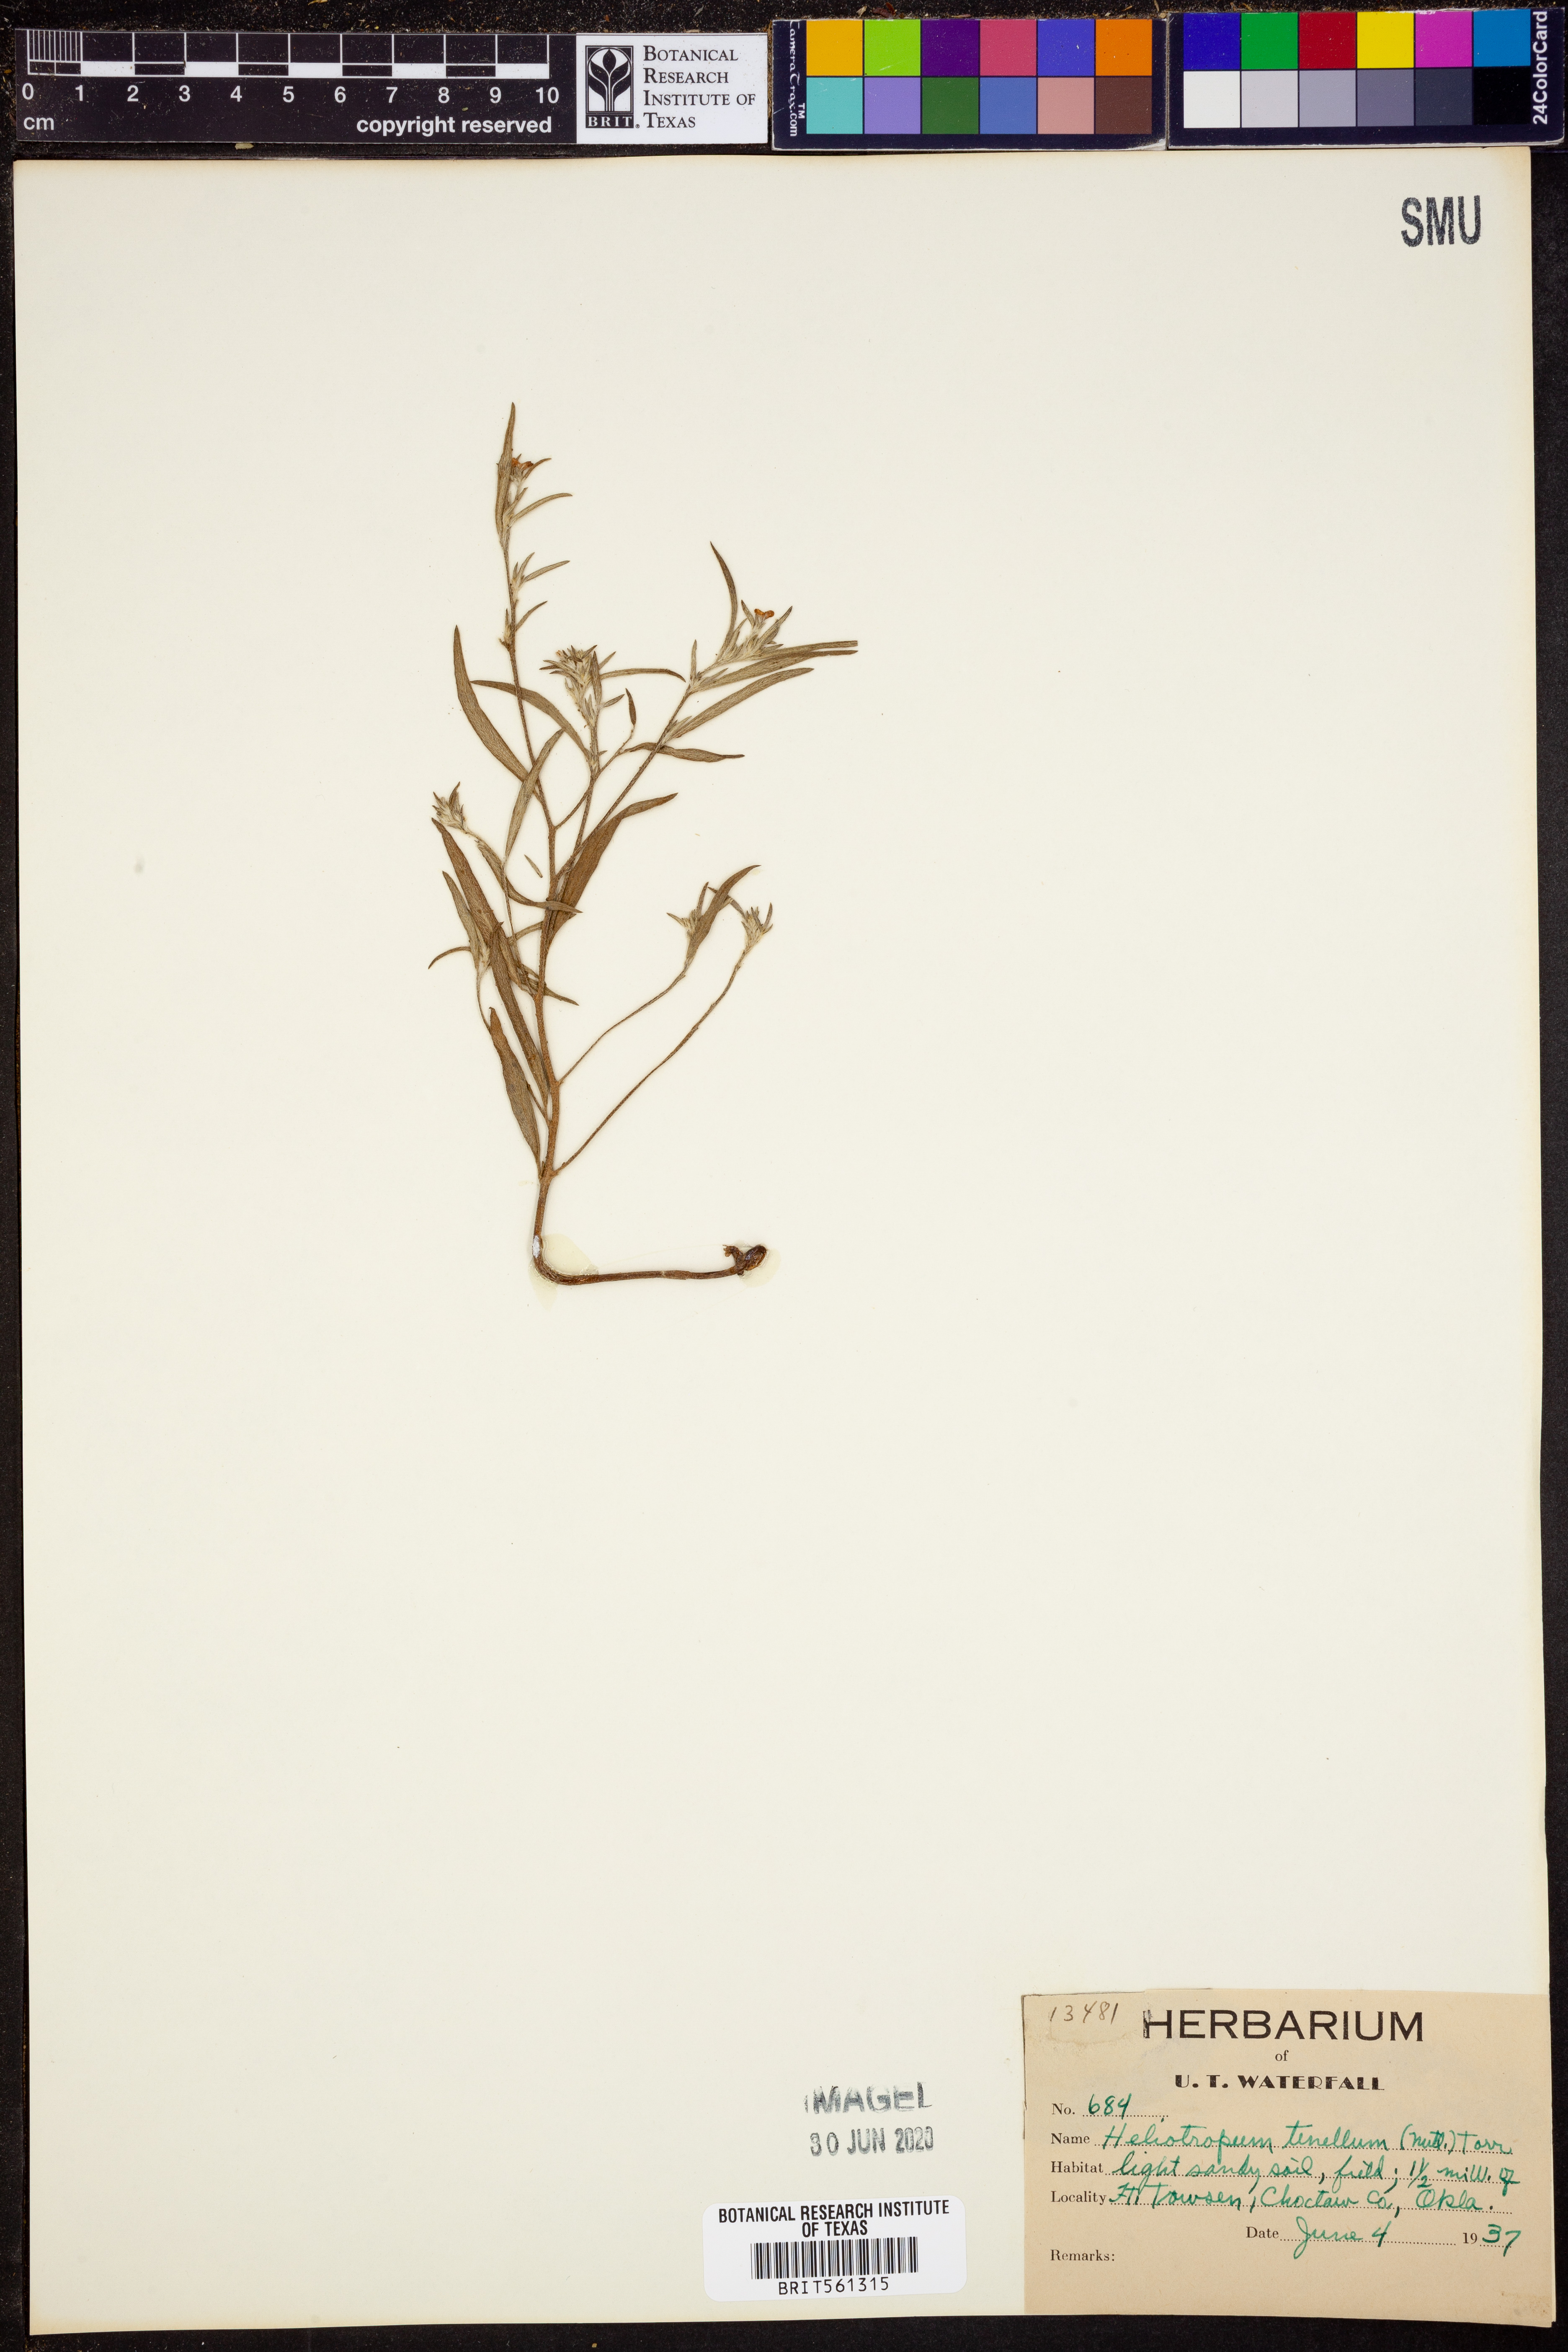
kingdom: Plantae
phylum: Tracheophyta
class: Magnoliopsida
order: Boraginales
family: Heliotropiaceae
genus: Euploca
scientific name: Euploca tenella
